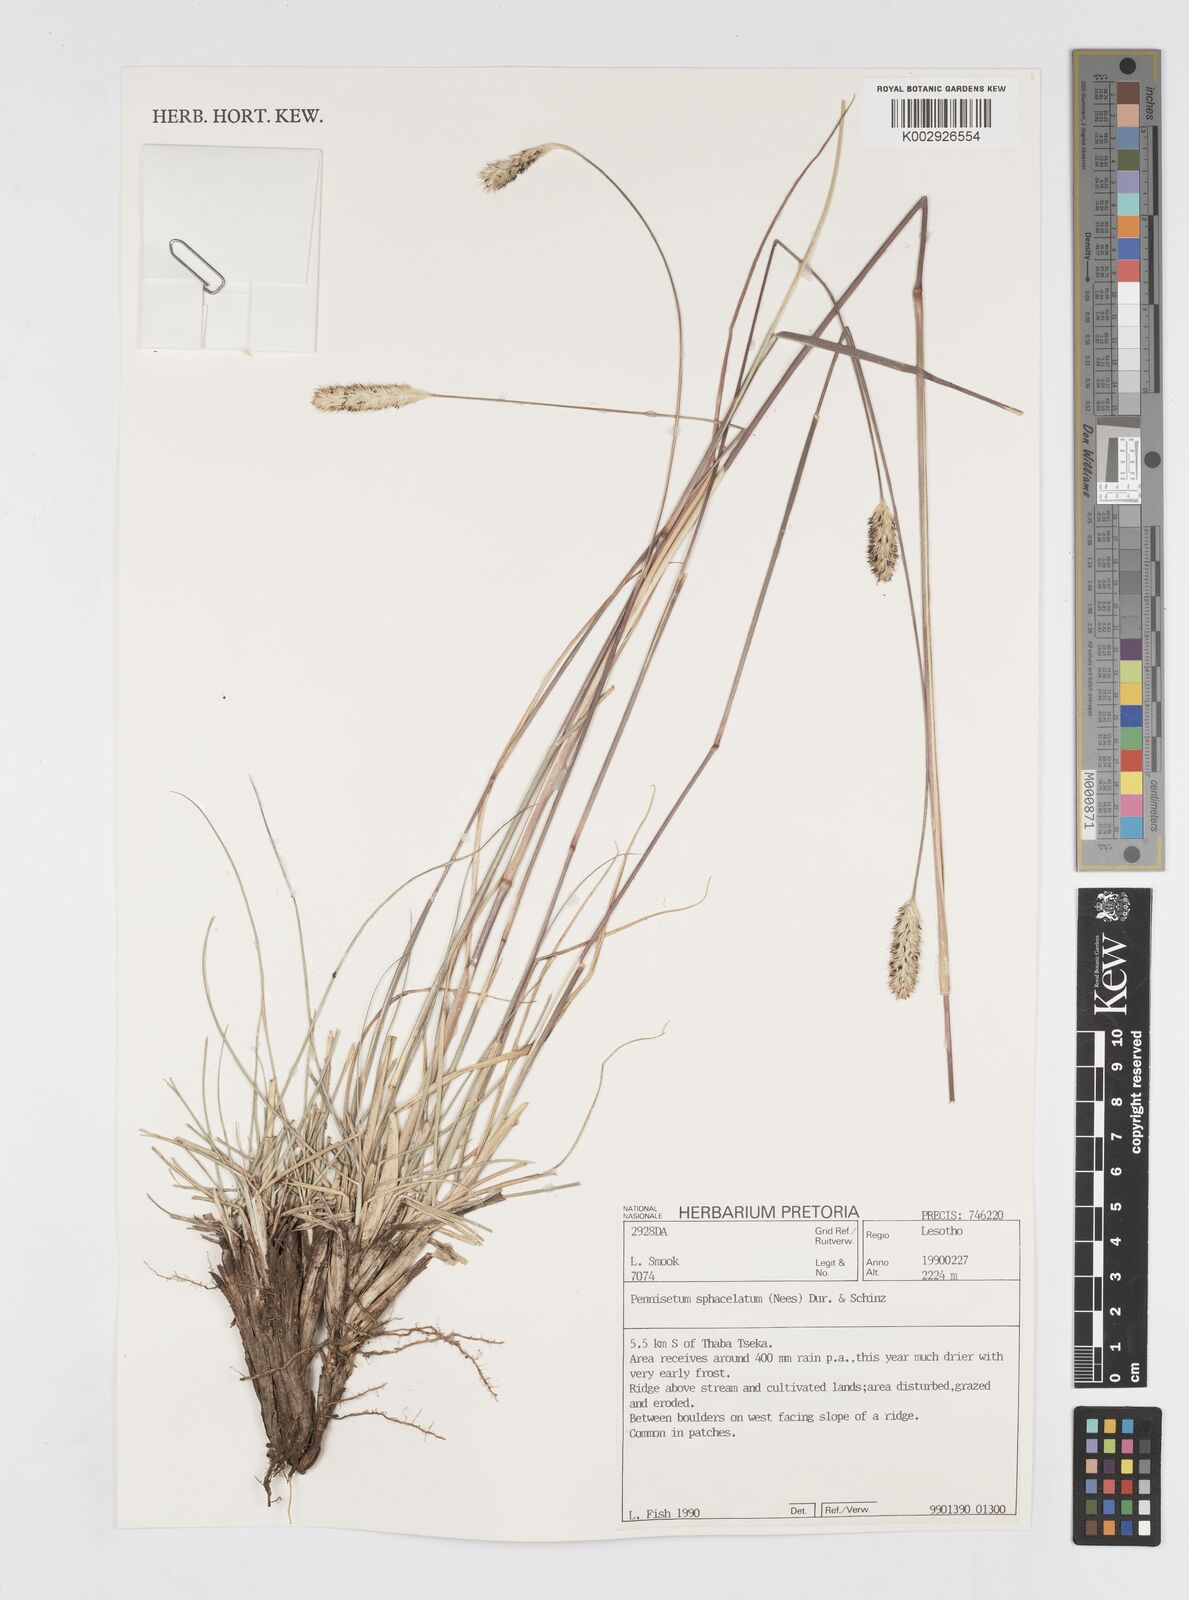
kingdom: Plantae
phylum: Tracheophyta
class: Liliopsida
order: Poales
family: Poaceae
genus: Cenchrus
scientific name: Cenchrus sphacelatus
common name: Bulgras
